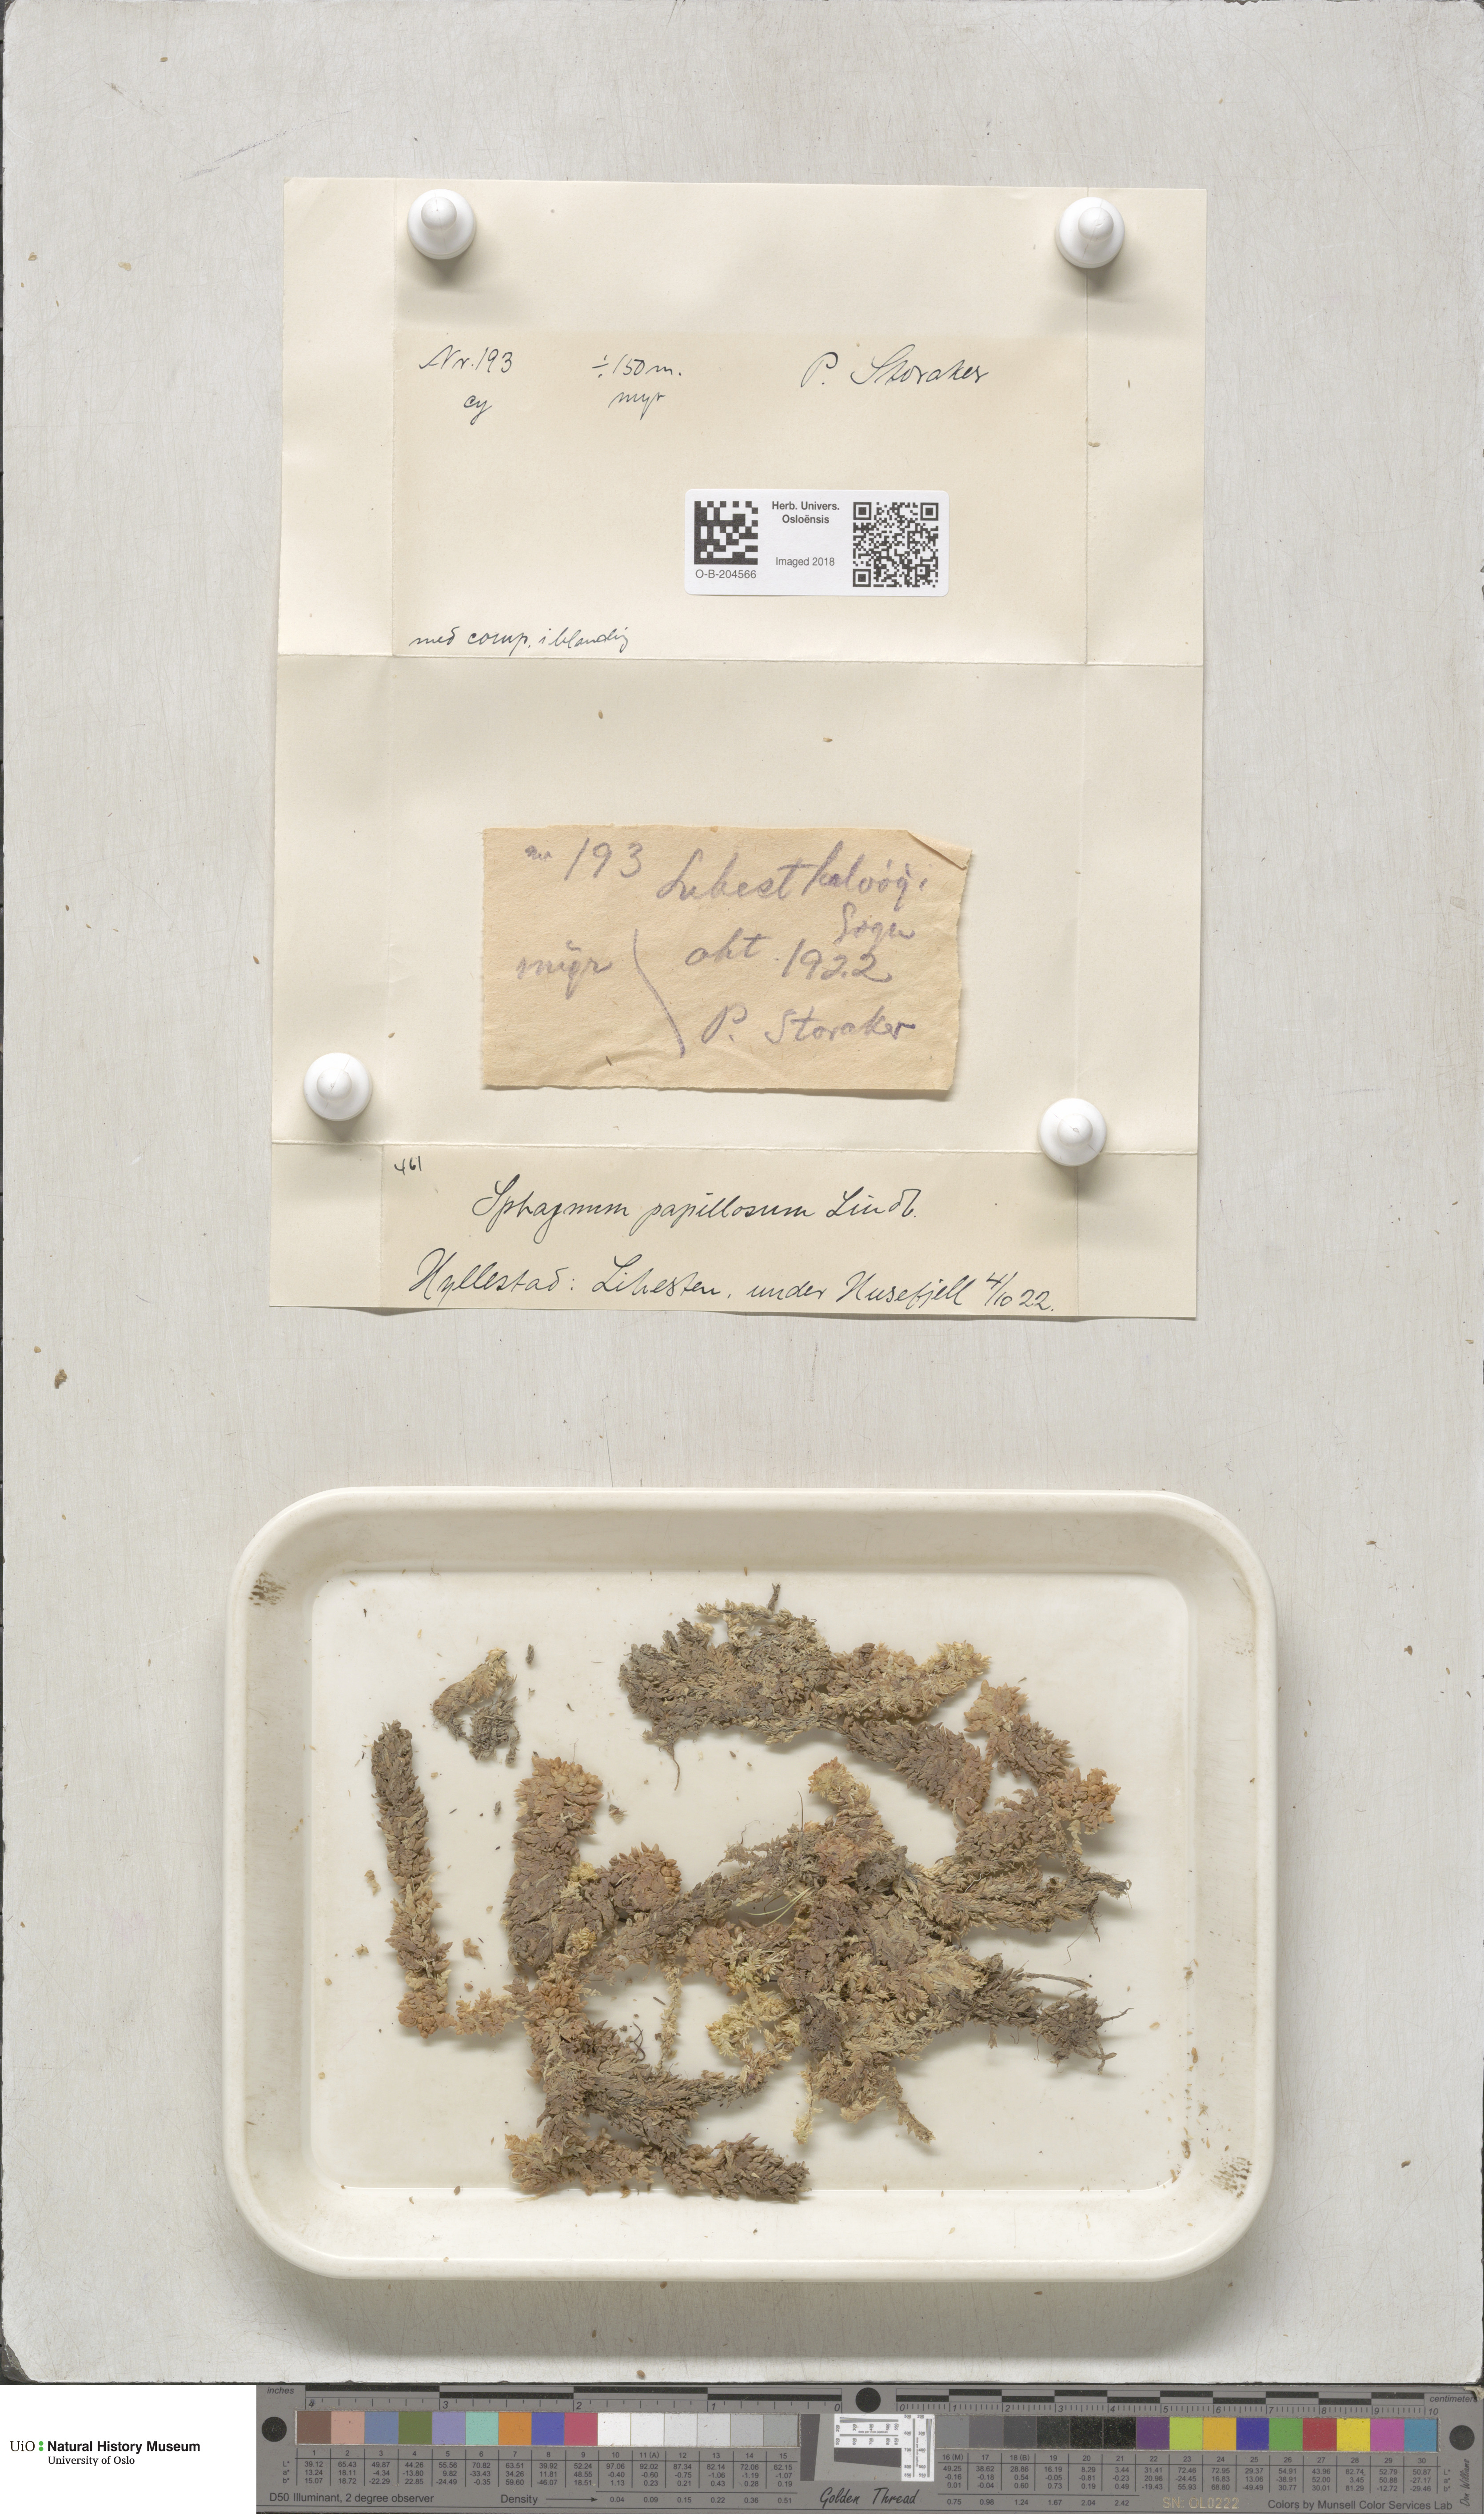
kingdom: Plantae
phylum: Bryophyta
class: Sphagnopsida
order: Sphagnales
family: Sphagnaceae
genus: Sphagnum
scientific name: Sphagnum papillosum
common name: Papillose peat moss
